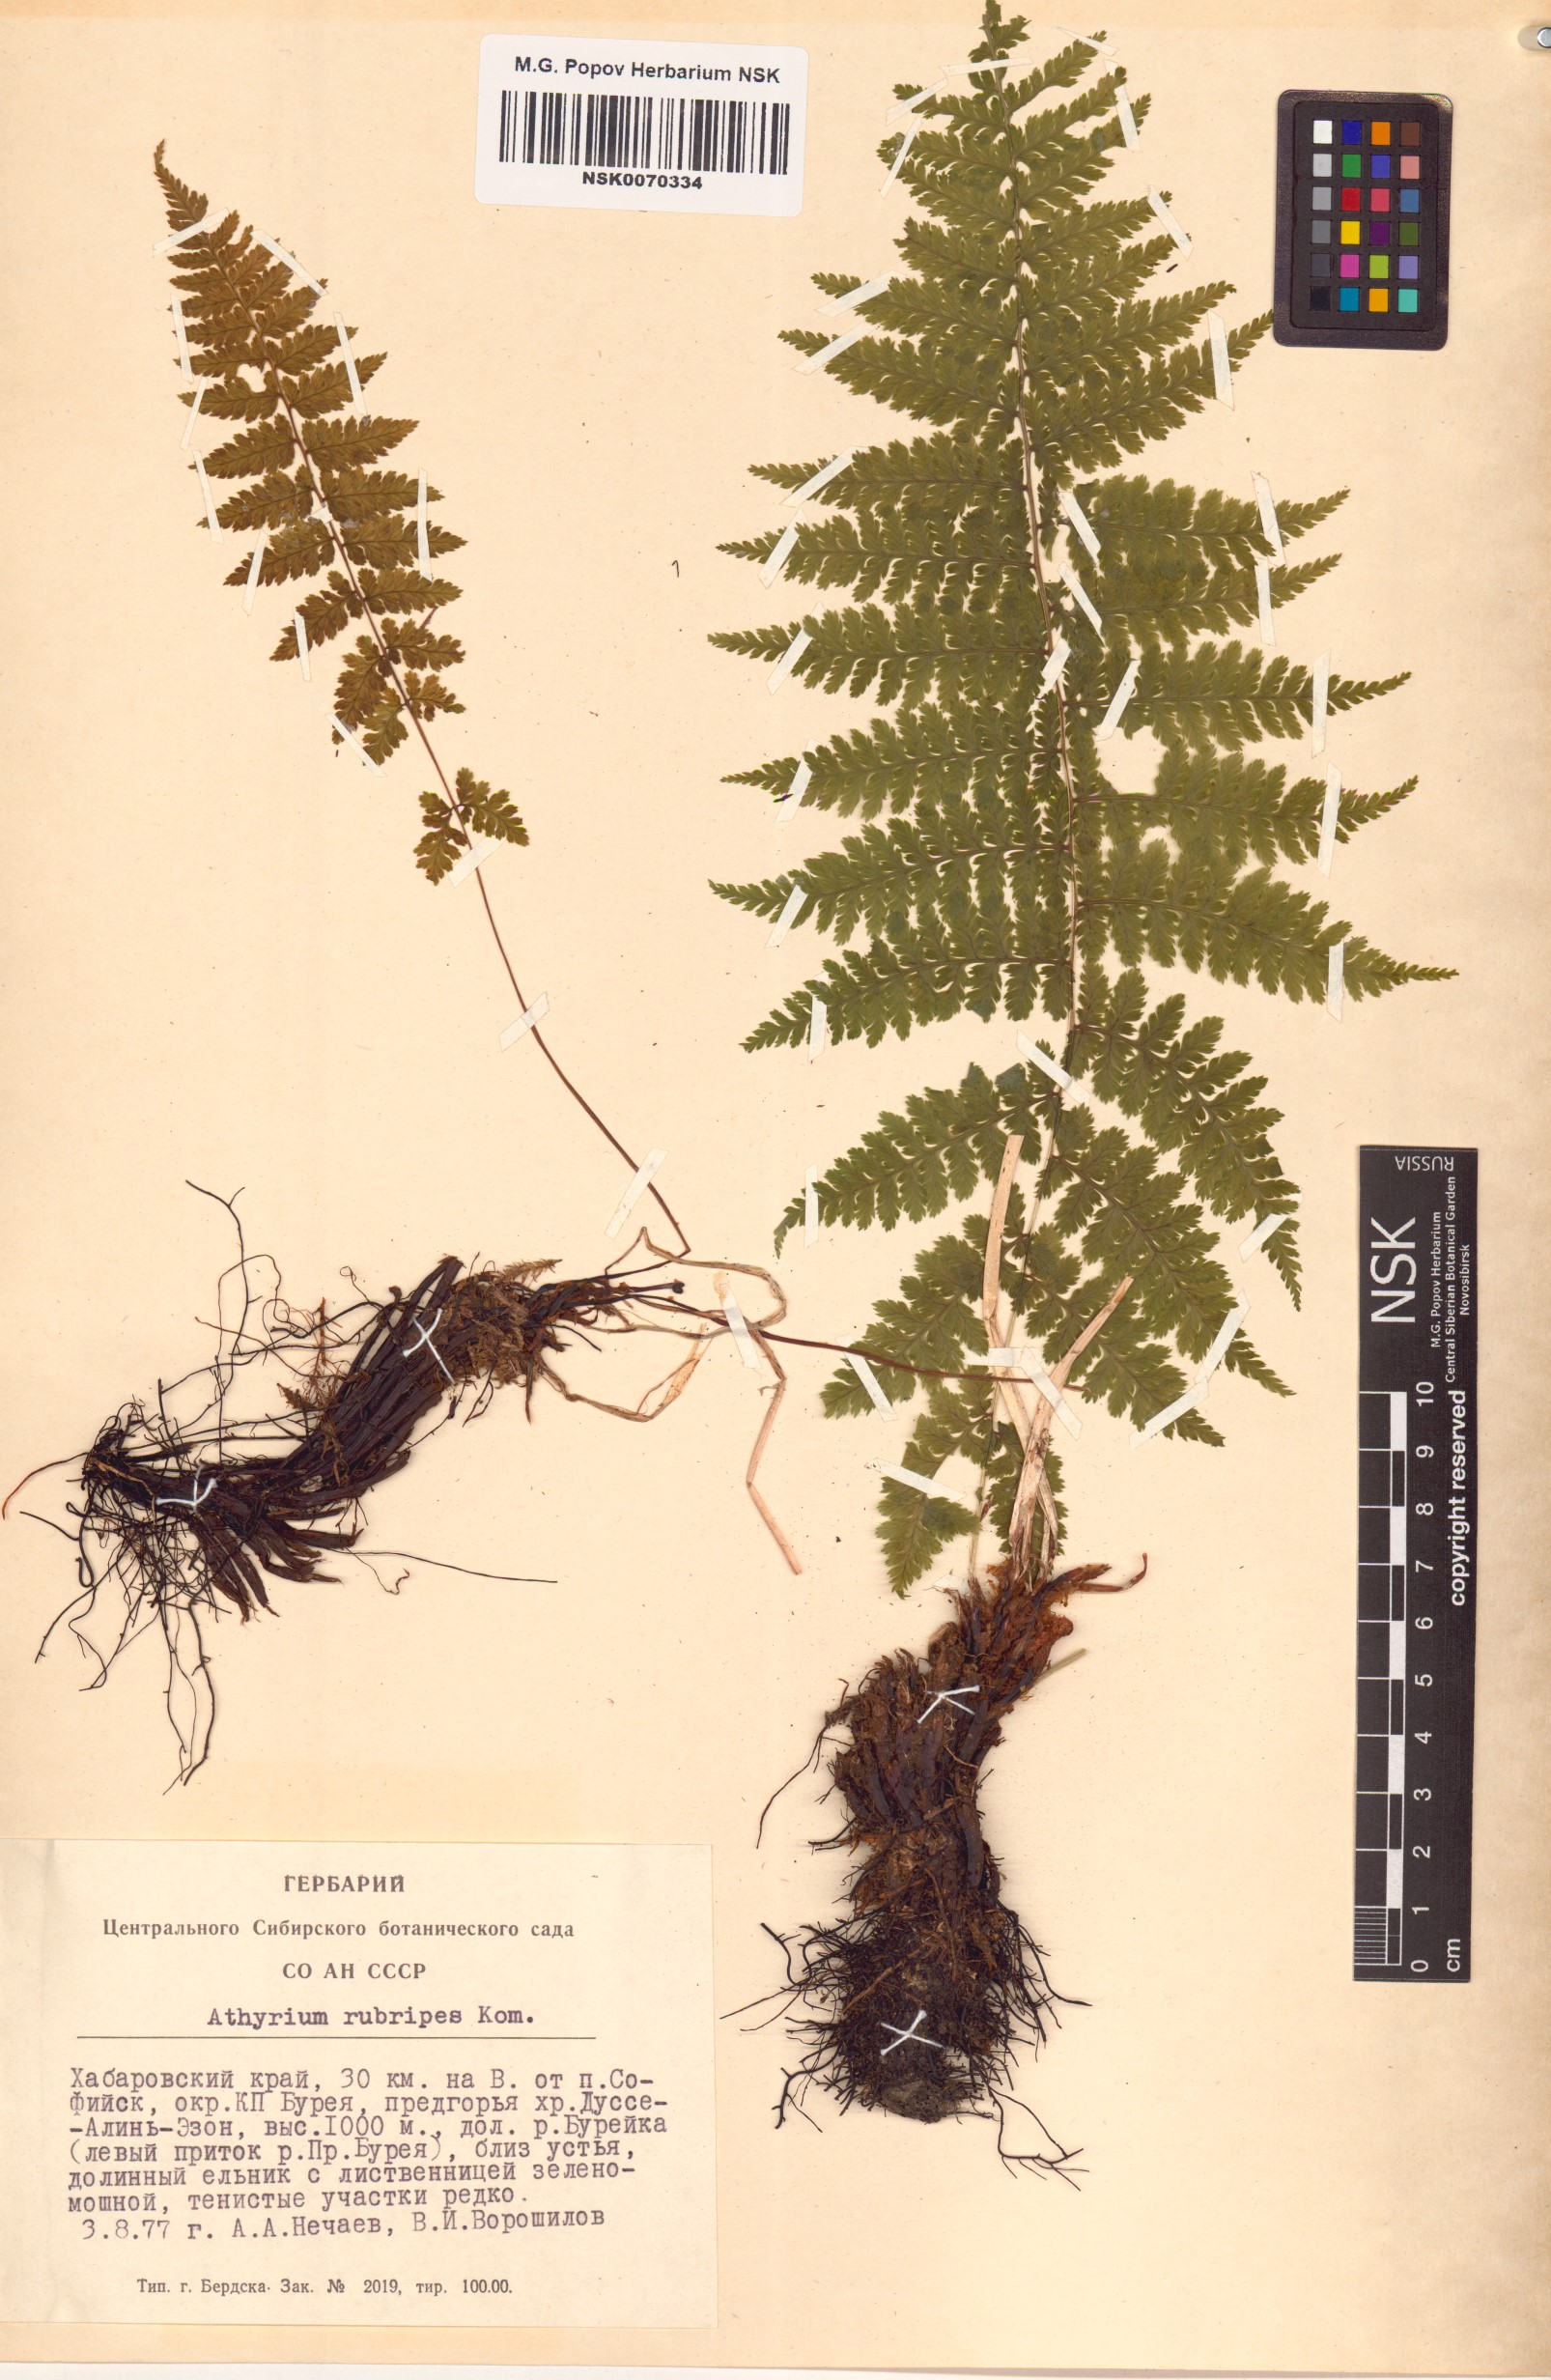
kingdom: Plantae
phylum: Tracheophyta
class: Polypodiopsida
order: Polypodiales
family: Athyriaceae
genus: Athyrium
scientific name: Athyrium rubripes
